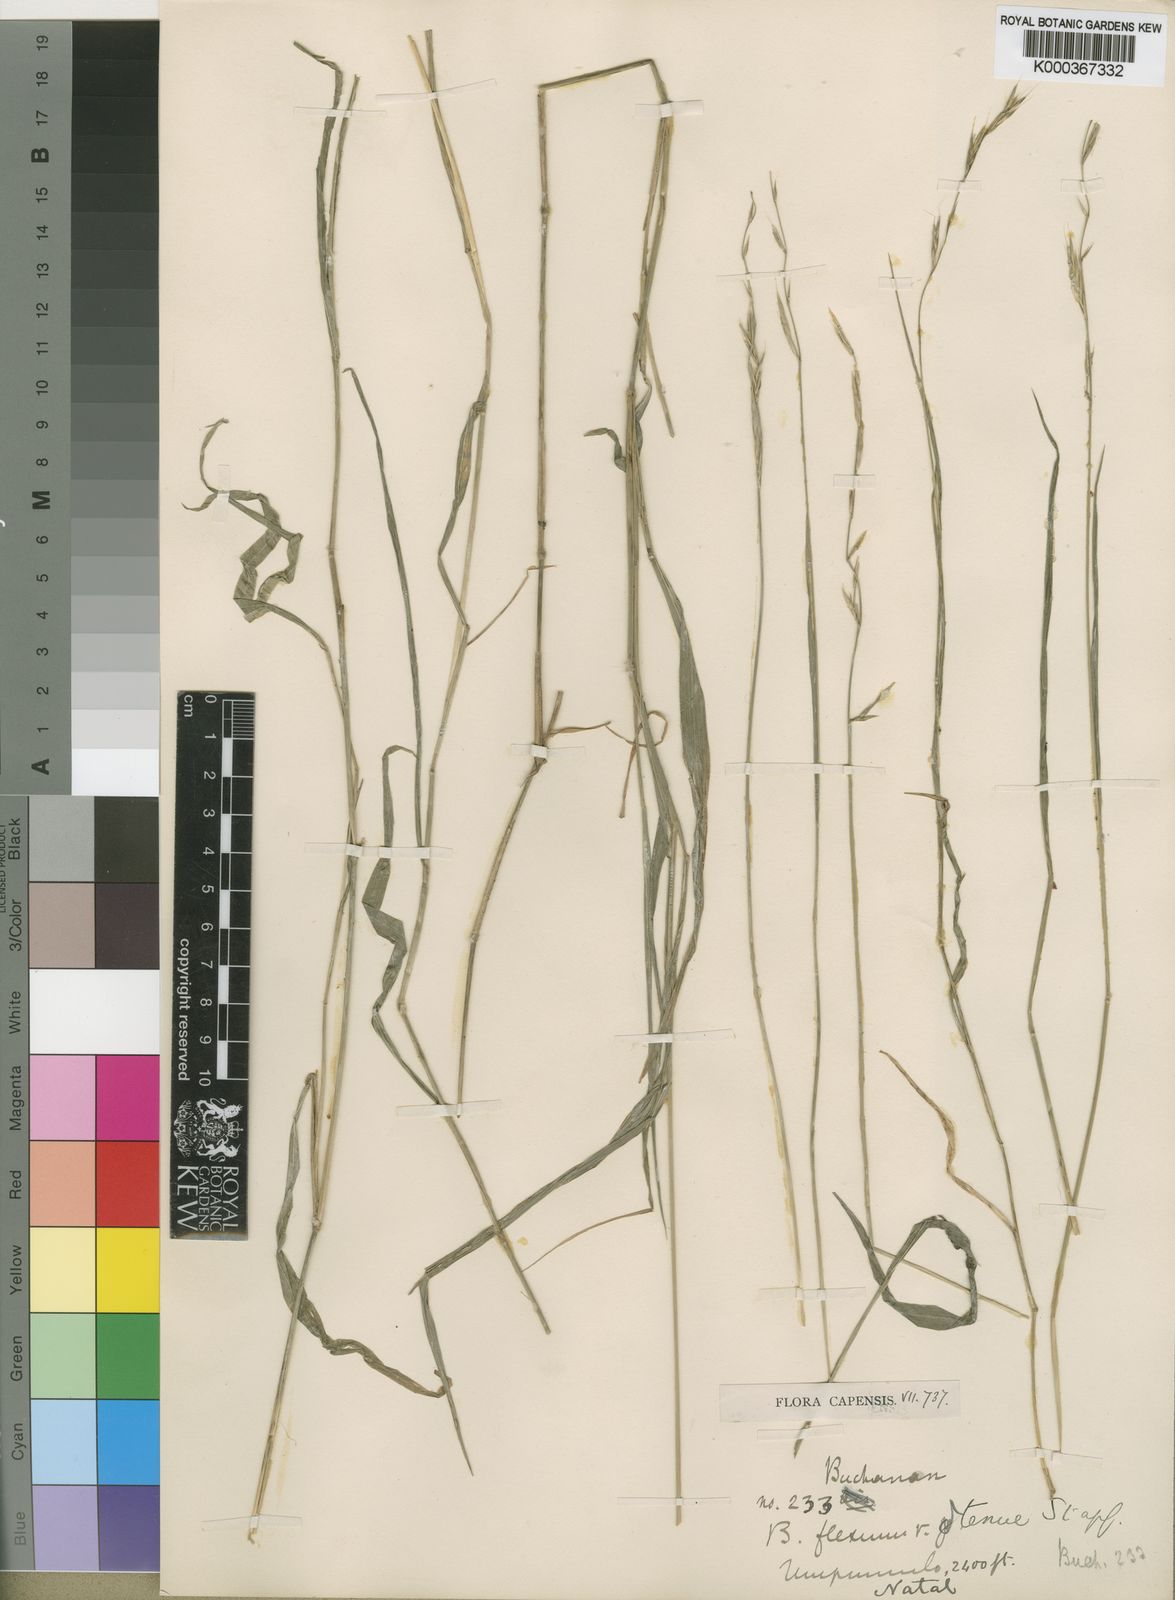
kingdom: Plantae
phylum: Tracheophyta
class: Liliopsida
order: Poales
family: Poaceae
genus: Brachypodium
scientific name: Brachypodium flexum
